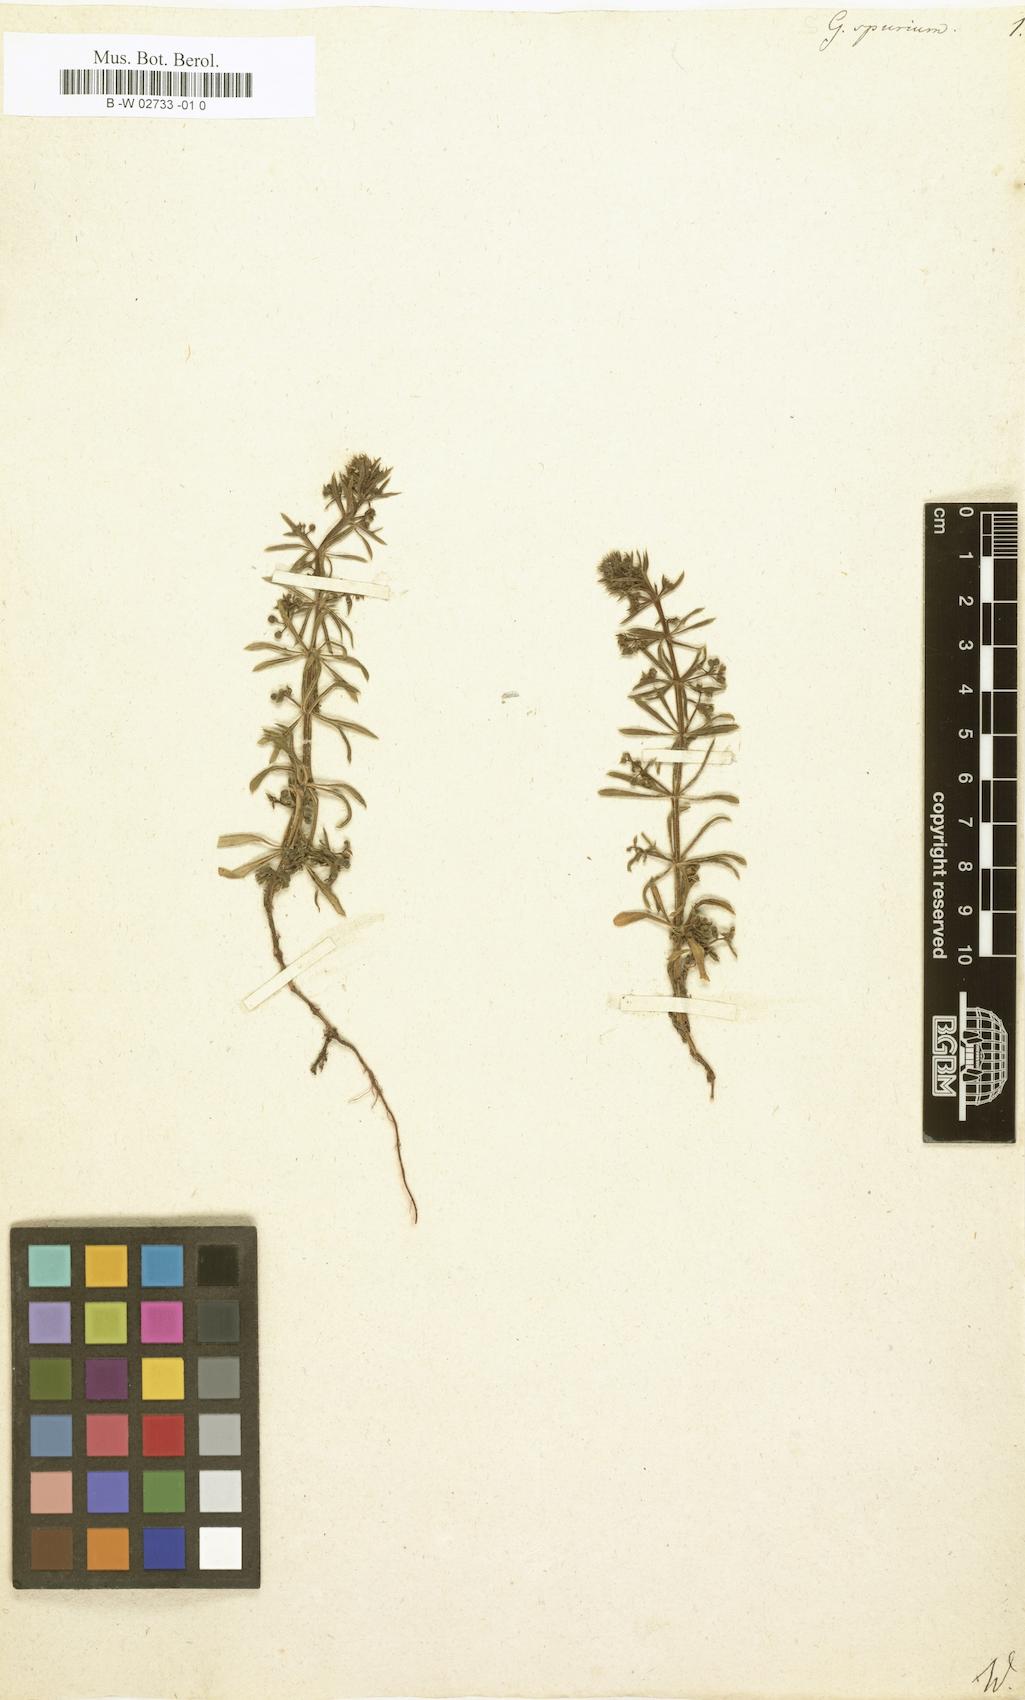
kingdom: Plantae
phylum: Tracheophyta
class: Magnoliopsida
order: Gentianales
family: Rubiaceae
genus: Galium
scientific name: Galium spurium
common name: False cleavers
